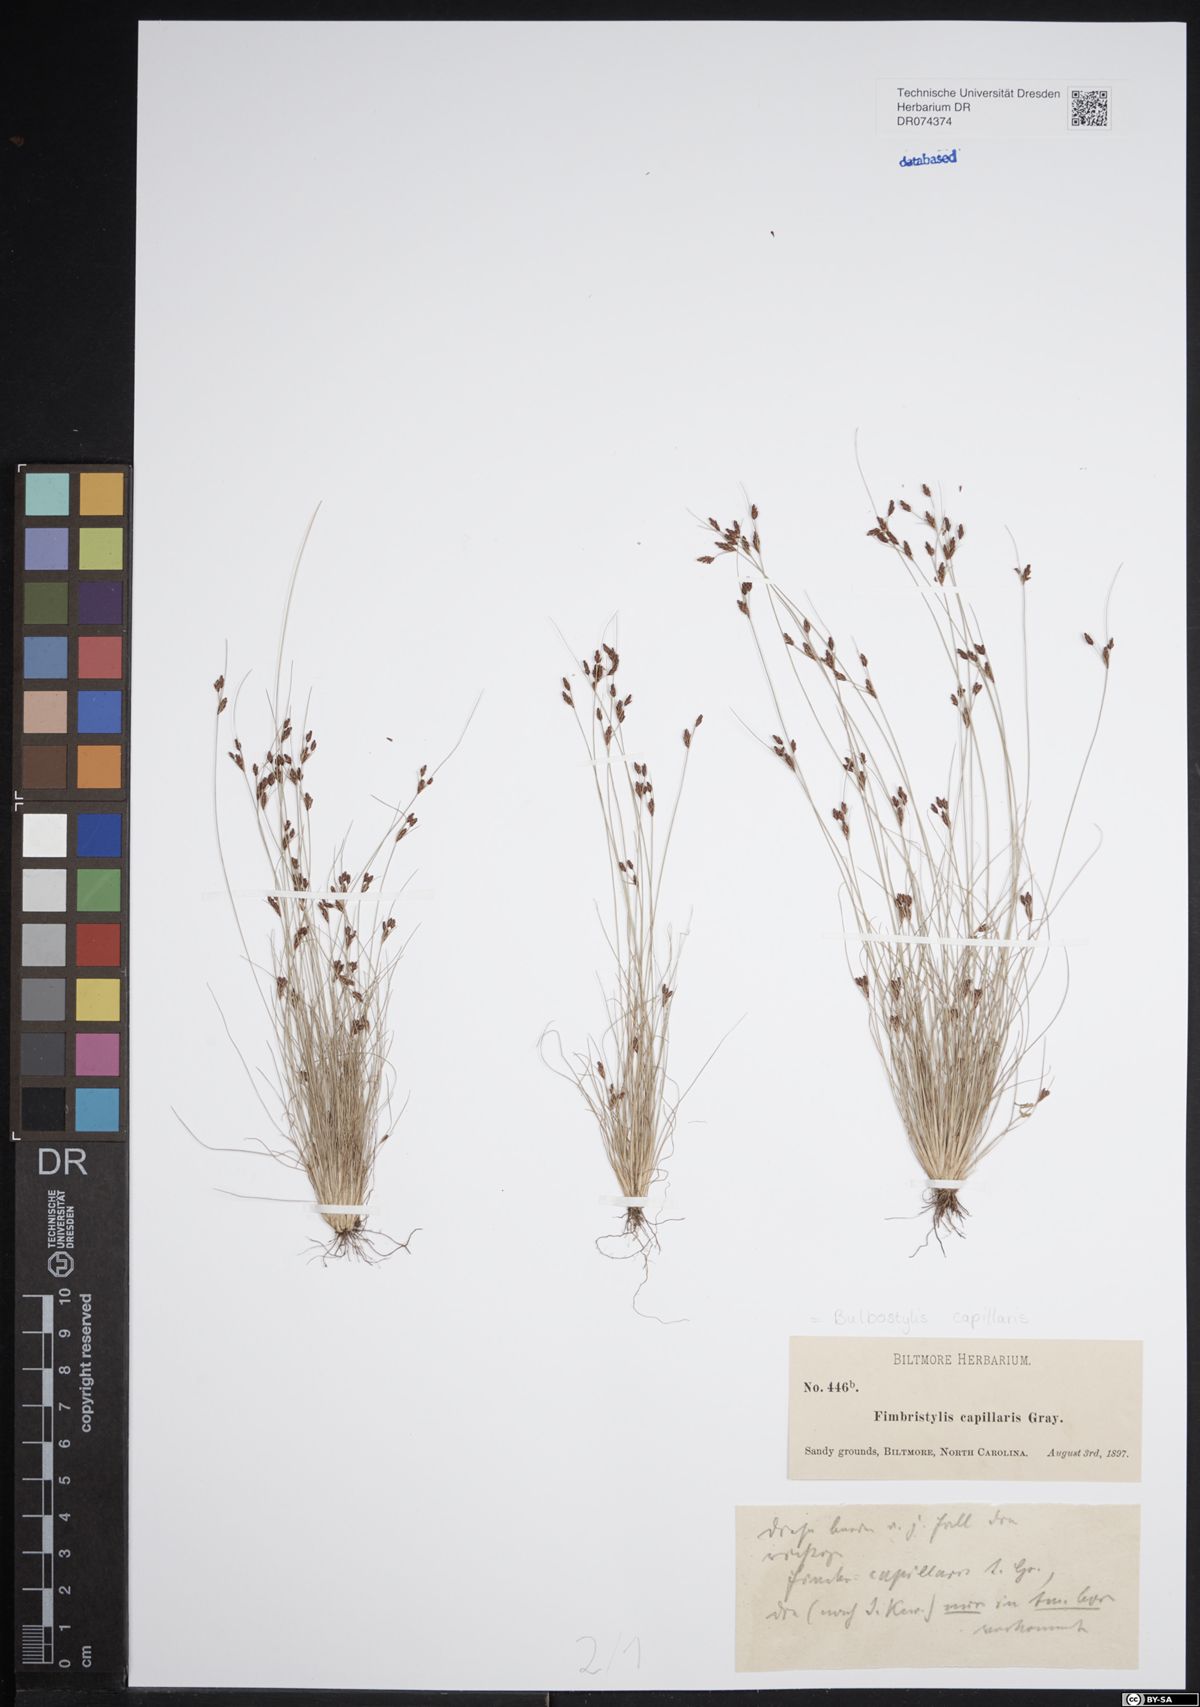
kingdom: Plantae
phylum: Tracheophyta
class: Liliopsida
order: Poales
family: Cyperaceae
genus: Bulbostylis
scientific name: Bulbostylis capillaris
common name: Densetuft hairsedge
